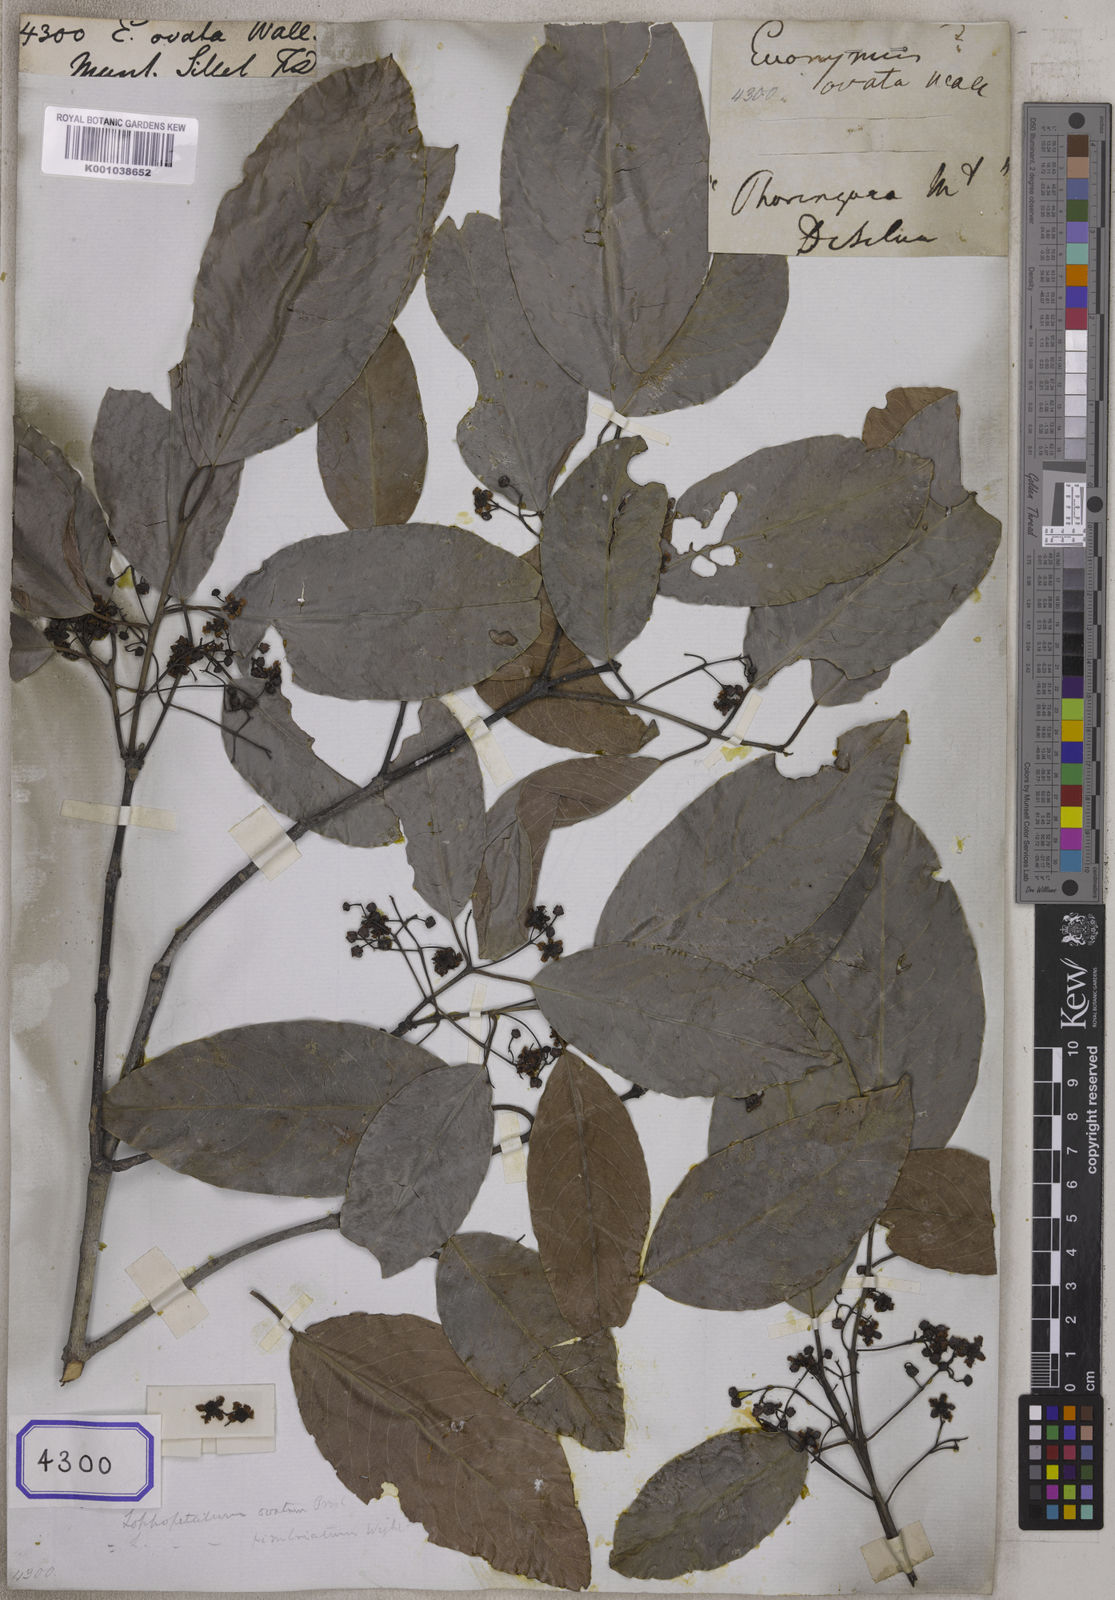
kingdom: Plantae
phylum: Tracheophyta
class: Magnoliopsida
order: Celastrales
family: Celastraceae
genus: Lophopetalum
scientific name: Lophopetalum wightianum
